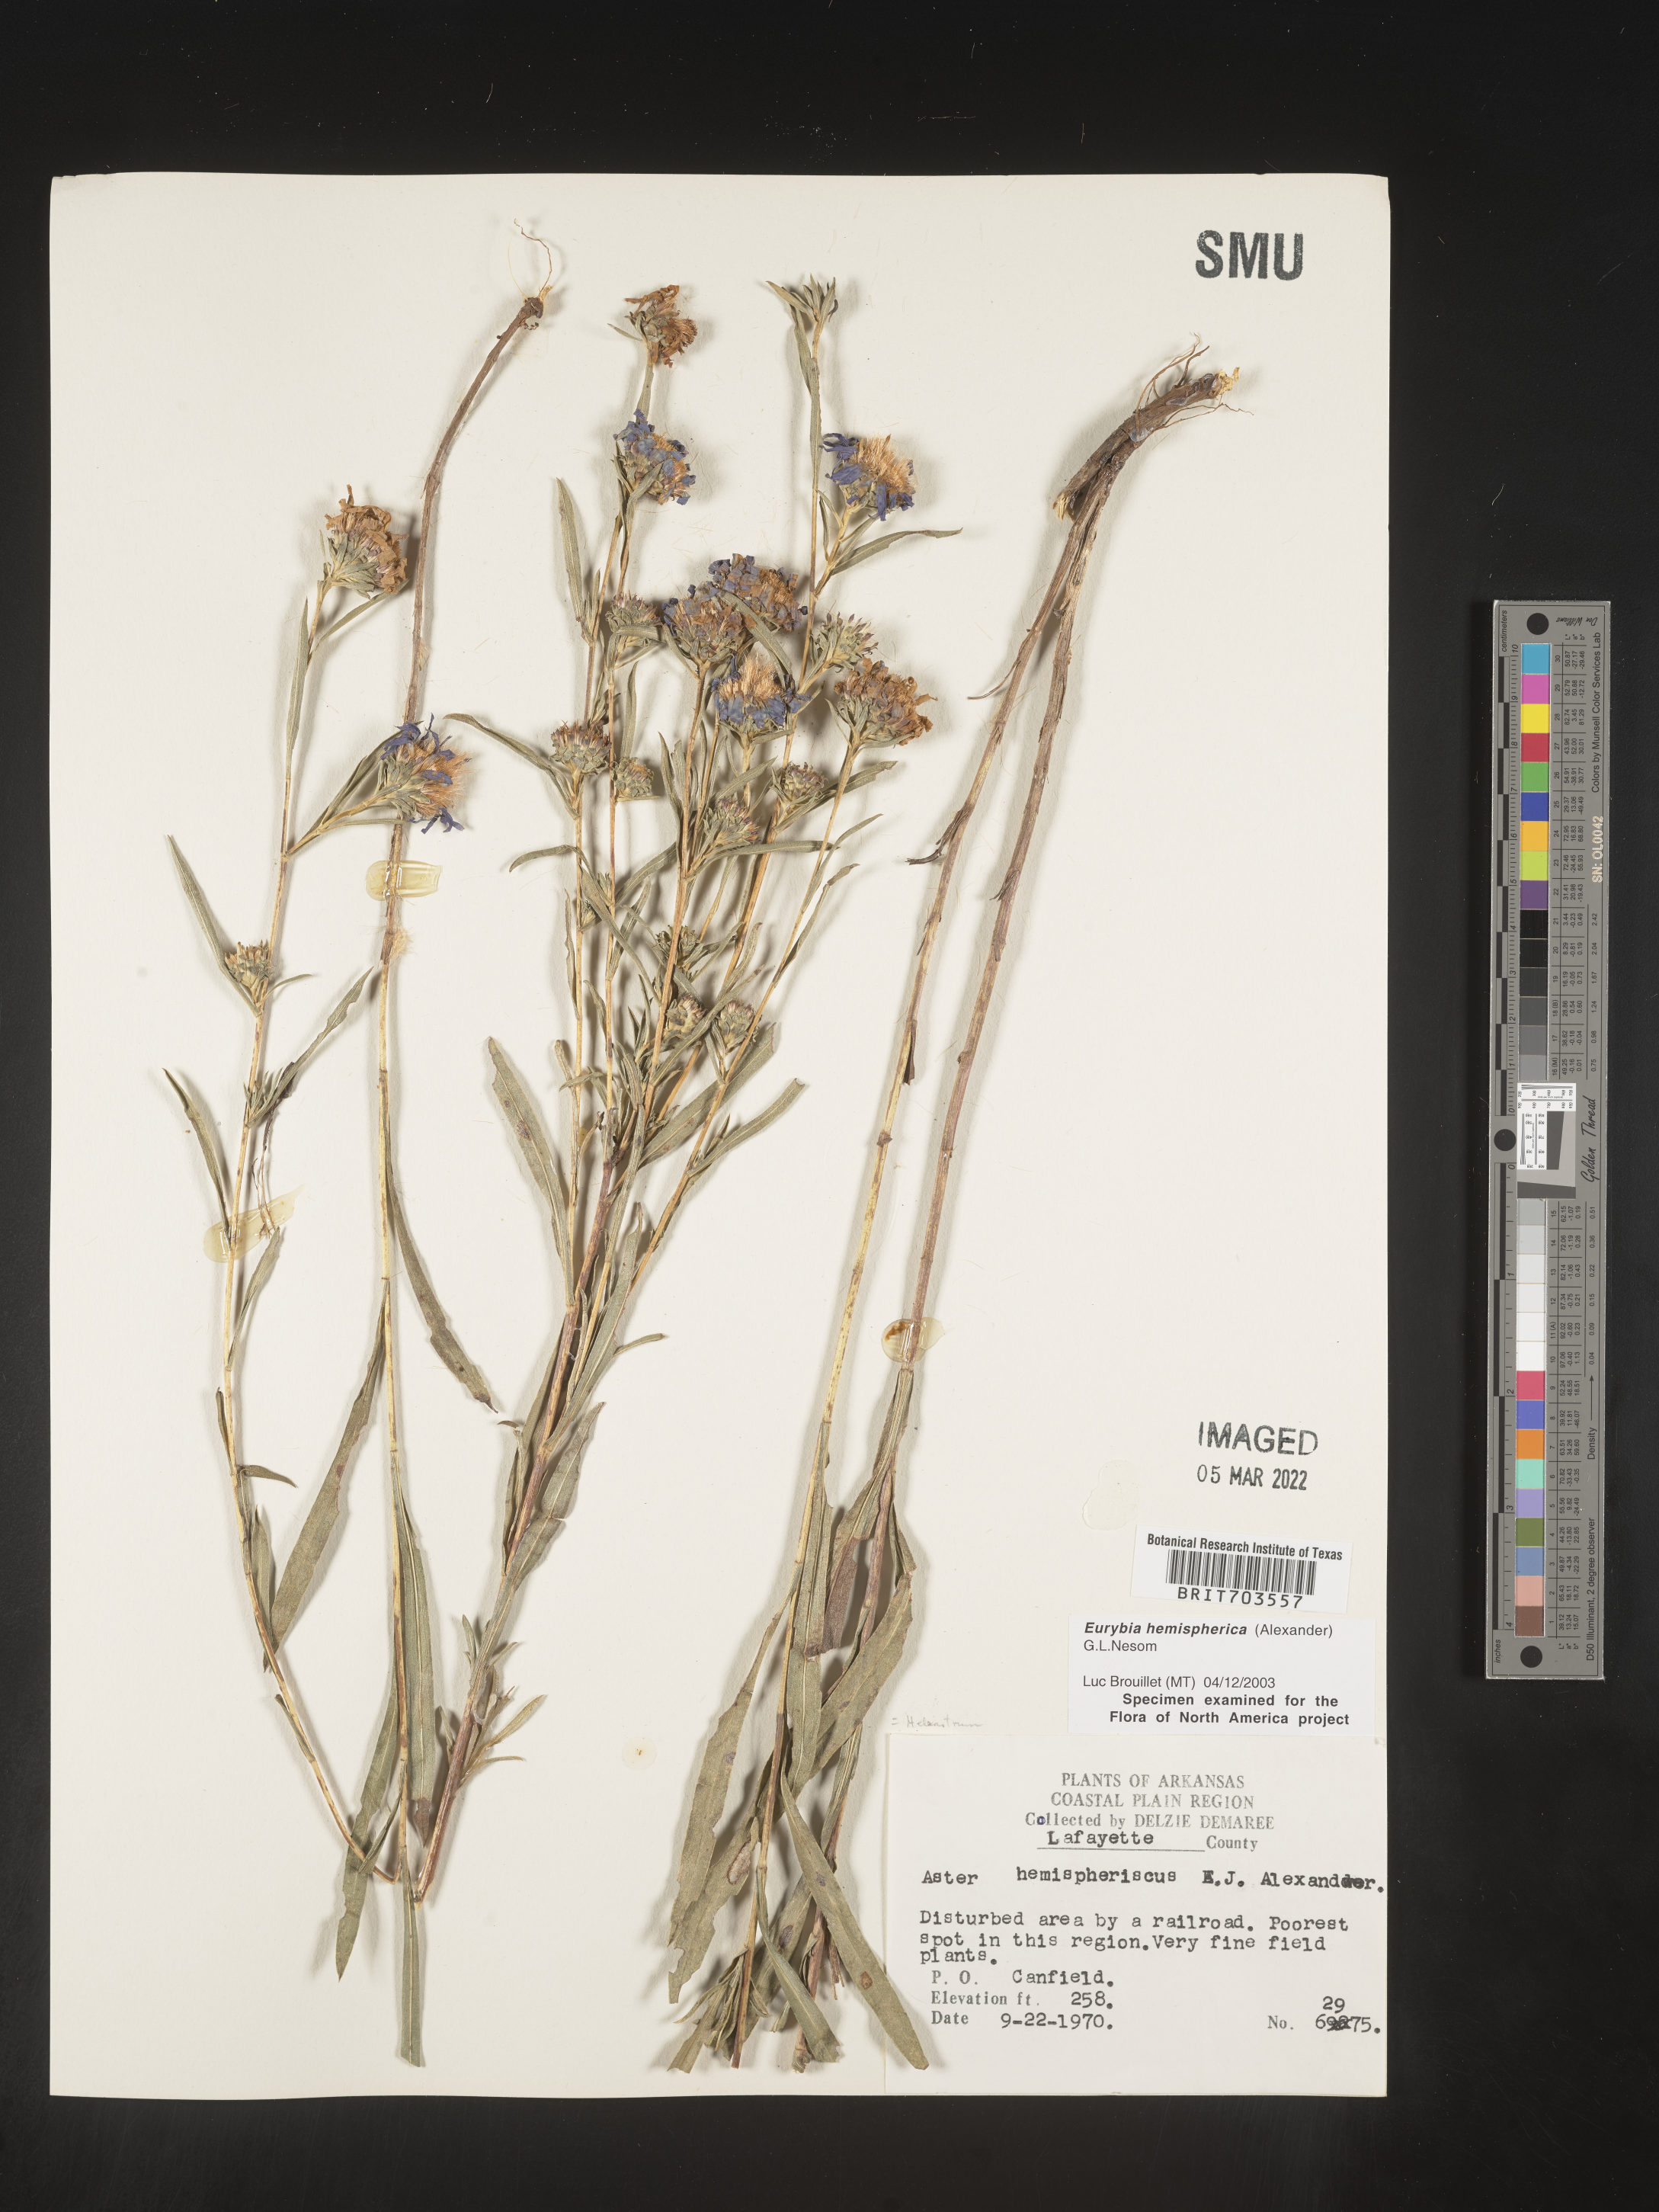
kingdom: Plantae
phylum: Tracheophyta
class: Magnoliopsida
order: Asterales
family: Asteraceae
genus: Eurybia
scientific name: Eurybia hemispherica
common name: Showy aster
